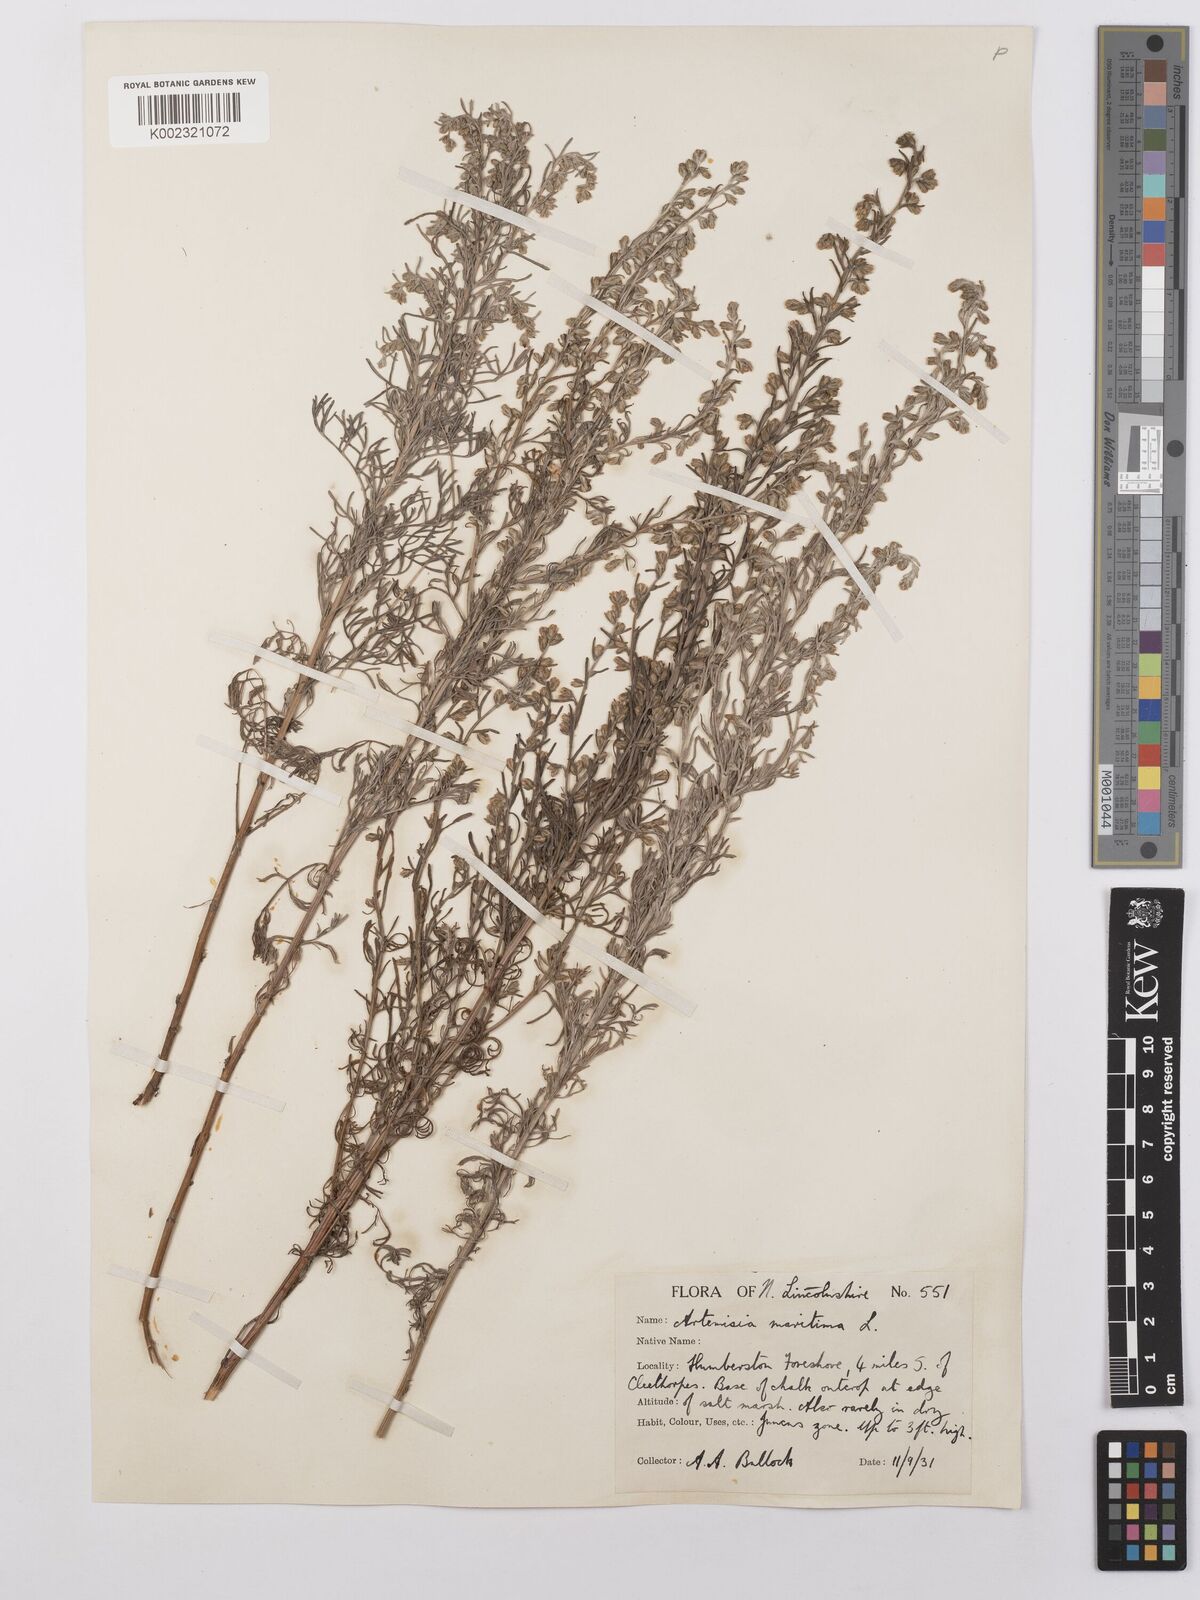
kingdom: Plantae
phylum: Tracheophyta
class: Magnoliopsida
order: Asterales
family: Asteraceae
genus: Artemisia
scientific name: Artemisia maritima
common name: Wormseed
